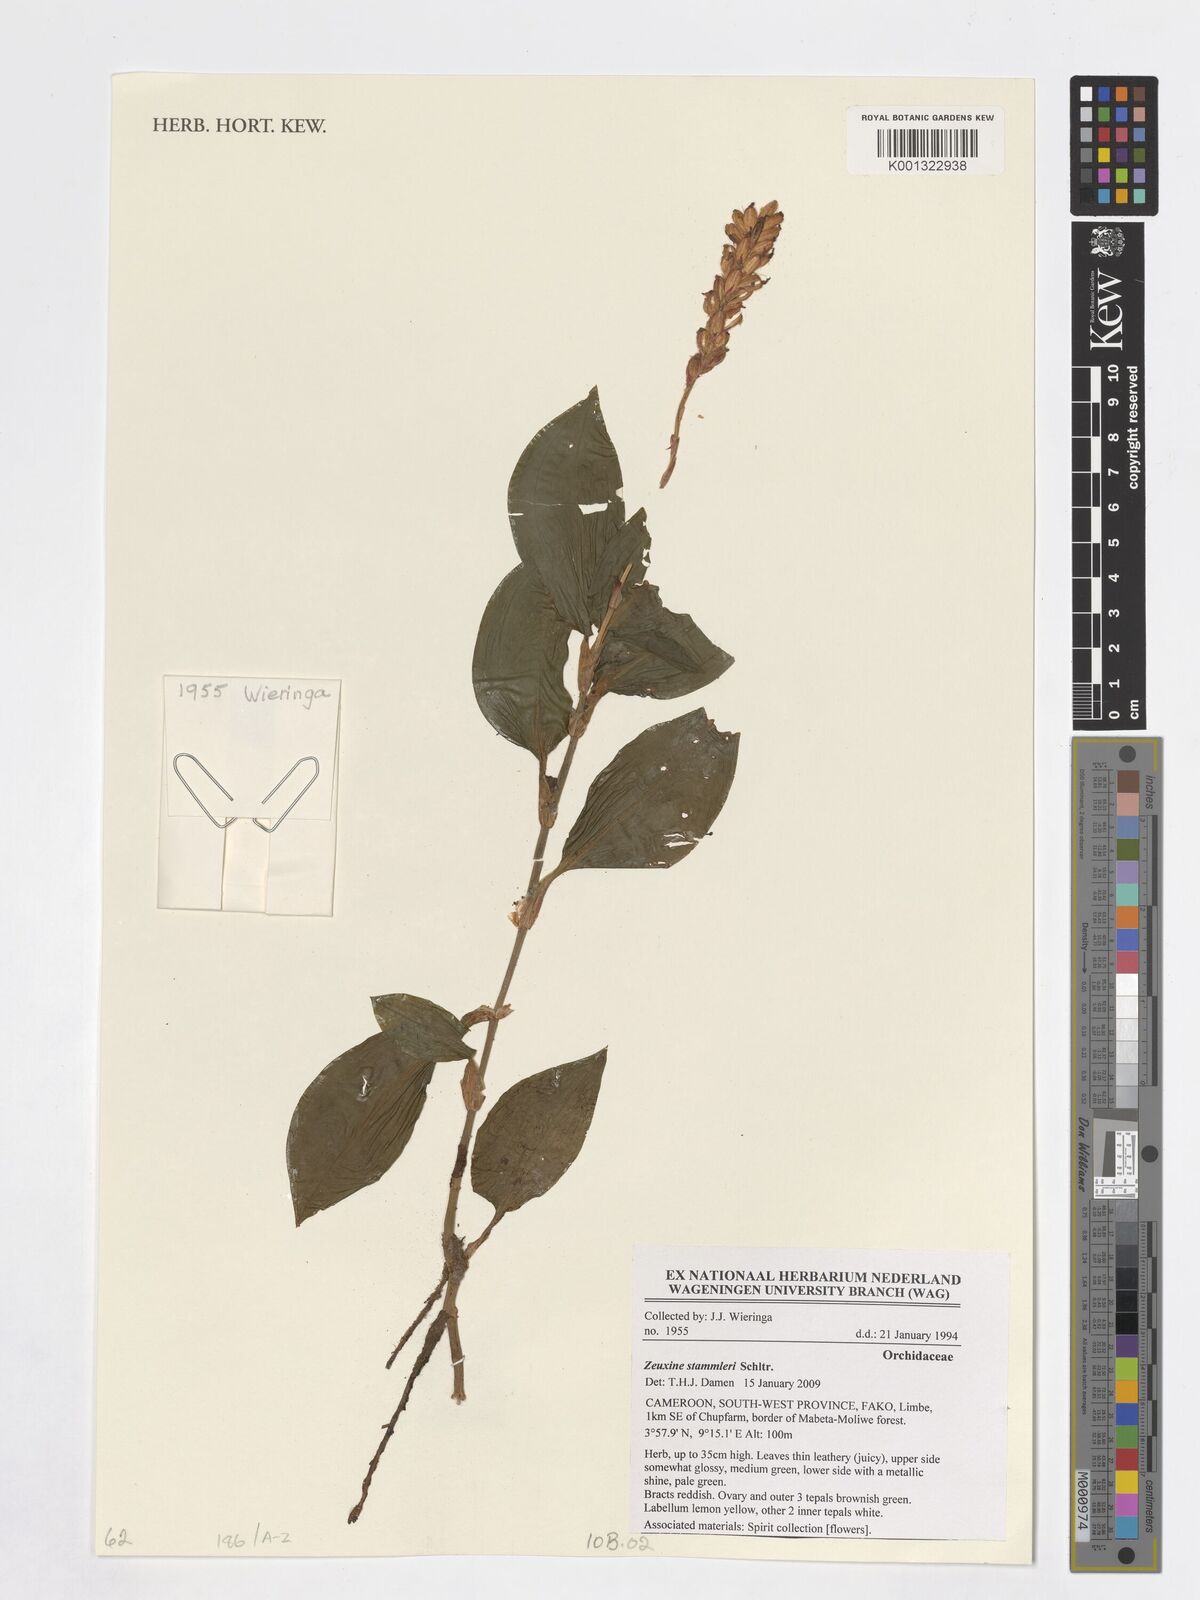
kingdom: Plantae
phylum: Tracheophyta
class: Liliopsida
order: Asparagales
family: Orchidaceae
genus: Zeuxine
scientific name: Zeuxine stammleri
